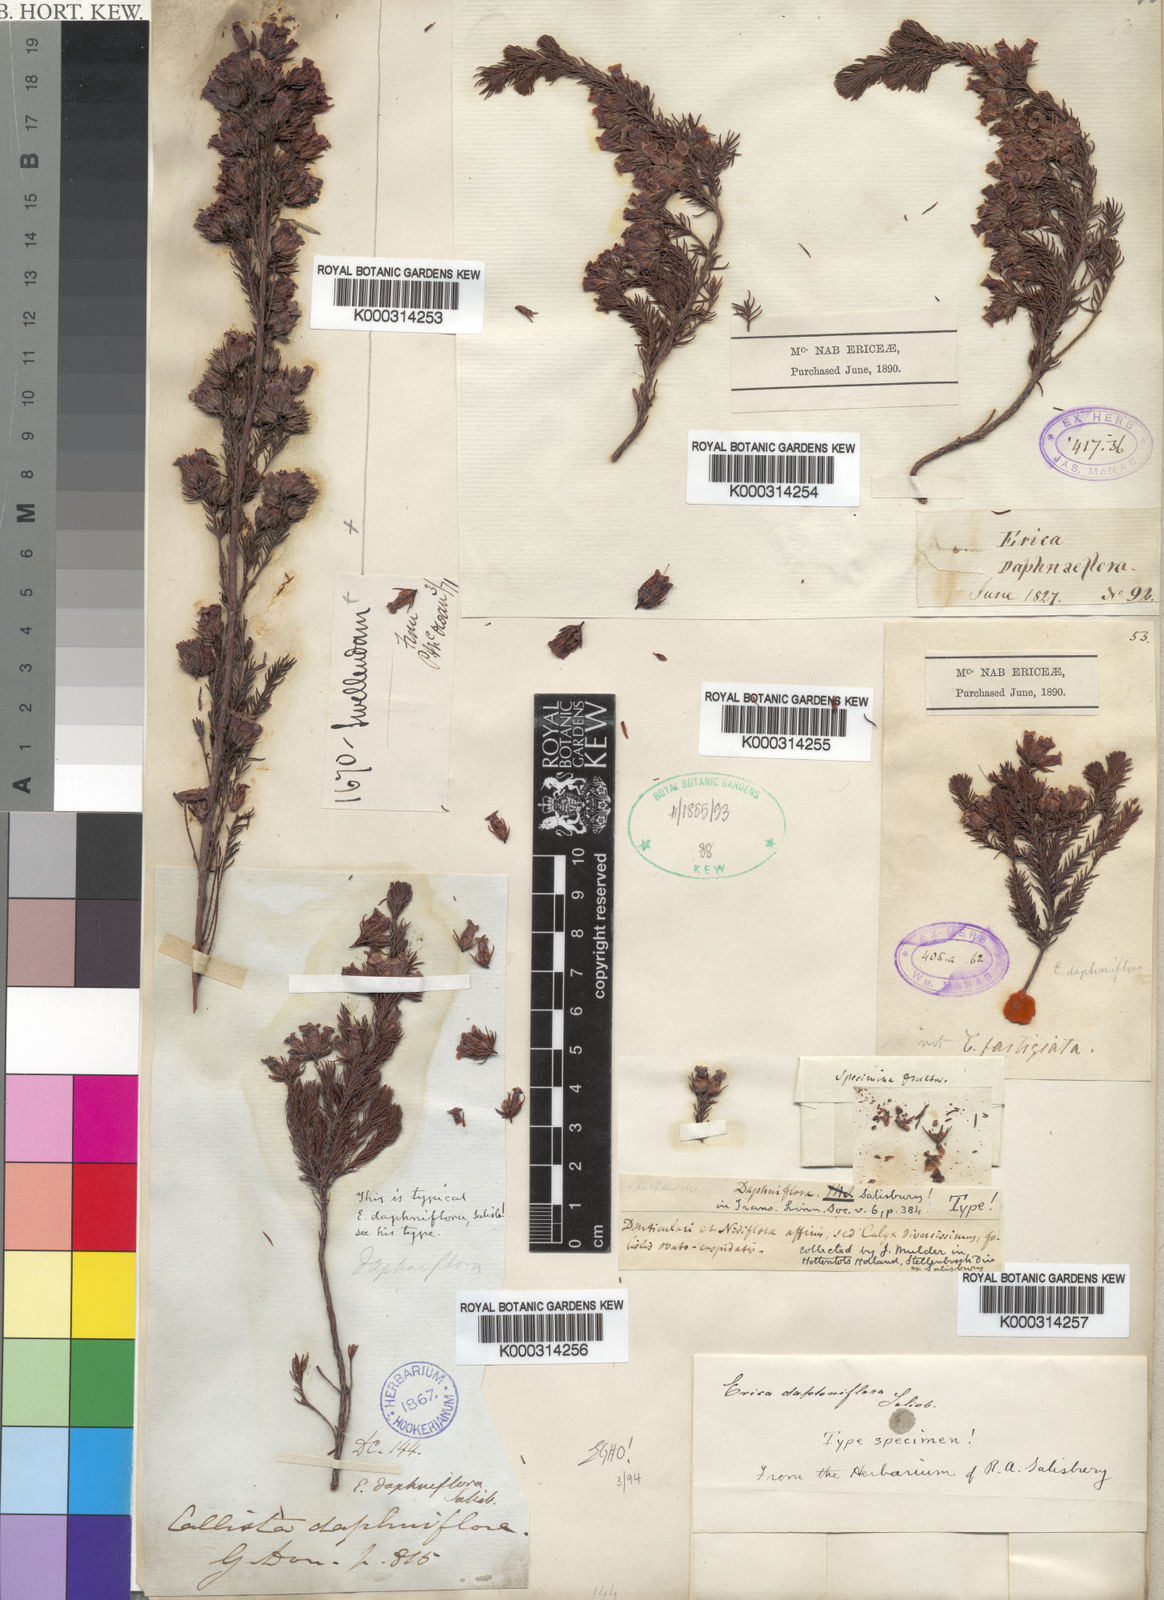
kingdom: Plantae
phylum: Tracheophyta
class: Magnoliopsida
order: Ericales
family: Ericaceae
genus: Erica
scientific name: Erica daphniflora
